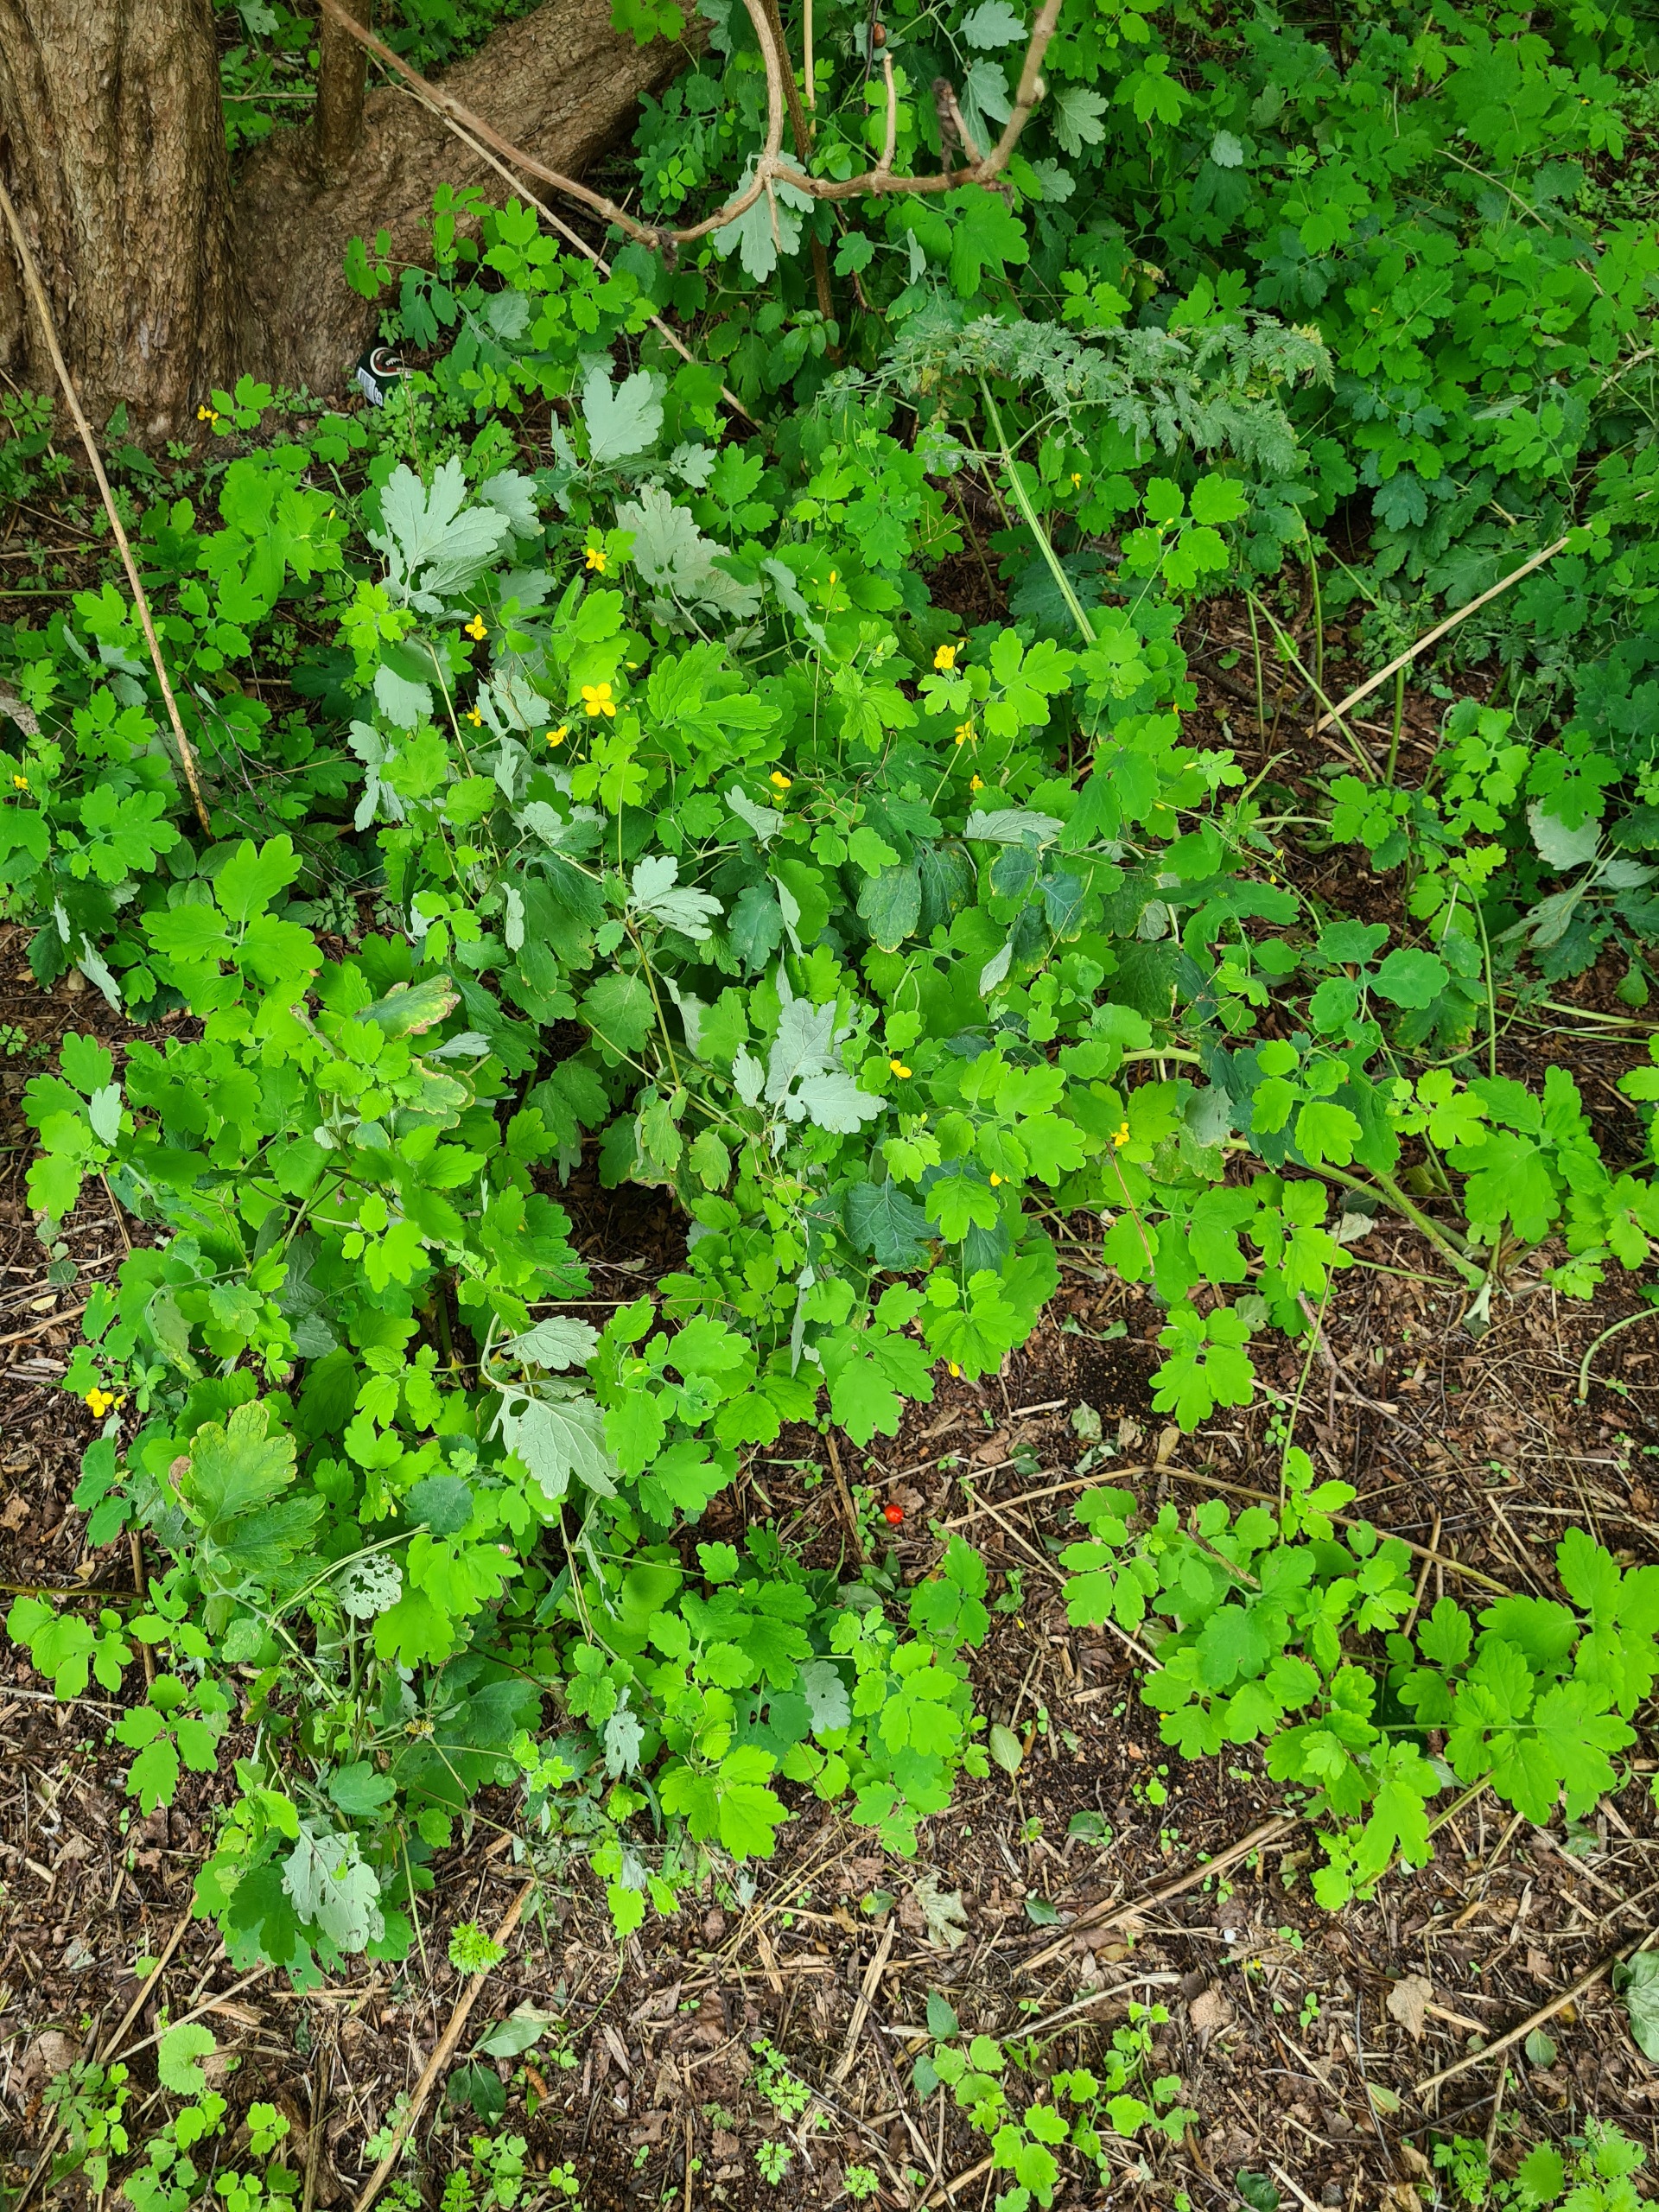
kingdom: Plantae
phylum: Tracheophyta
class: Magnoliopsida
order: Ranunculales
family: Papaveraceae
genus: Chelidonium
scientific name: Chelidonium majus
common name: Svaleurt
